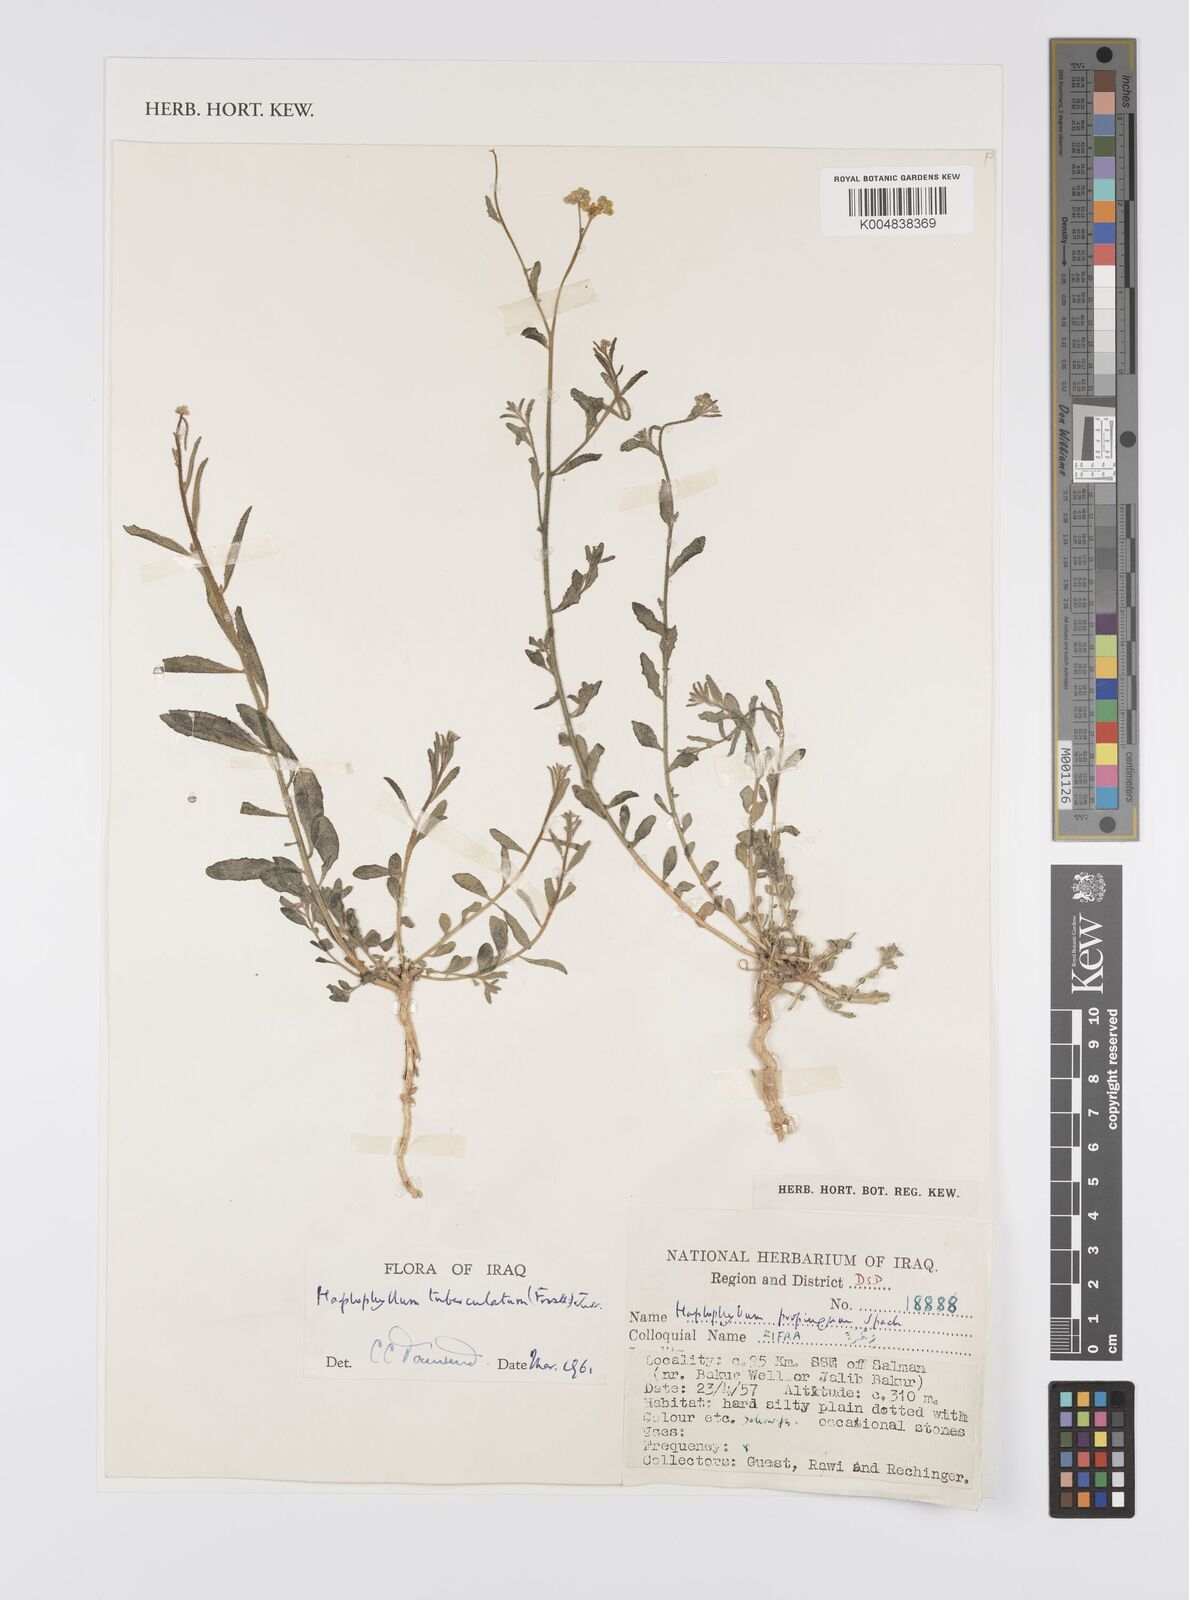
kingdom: Plantae
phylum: Tracheophyta
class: Magnoliopsida
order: Sapindales
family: Rutaceae
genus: Haplophyllum
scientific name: Haplophyllum tuberculatum
